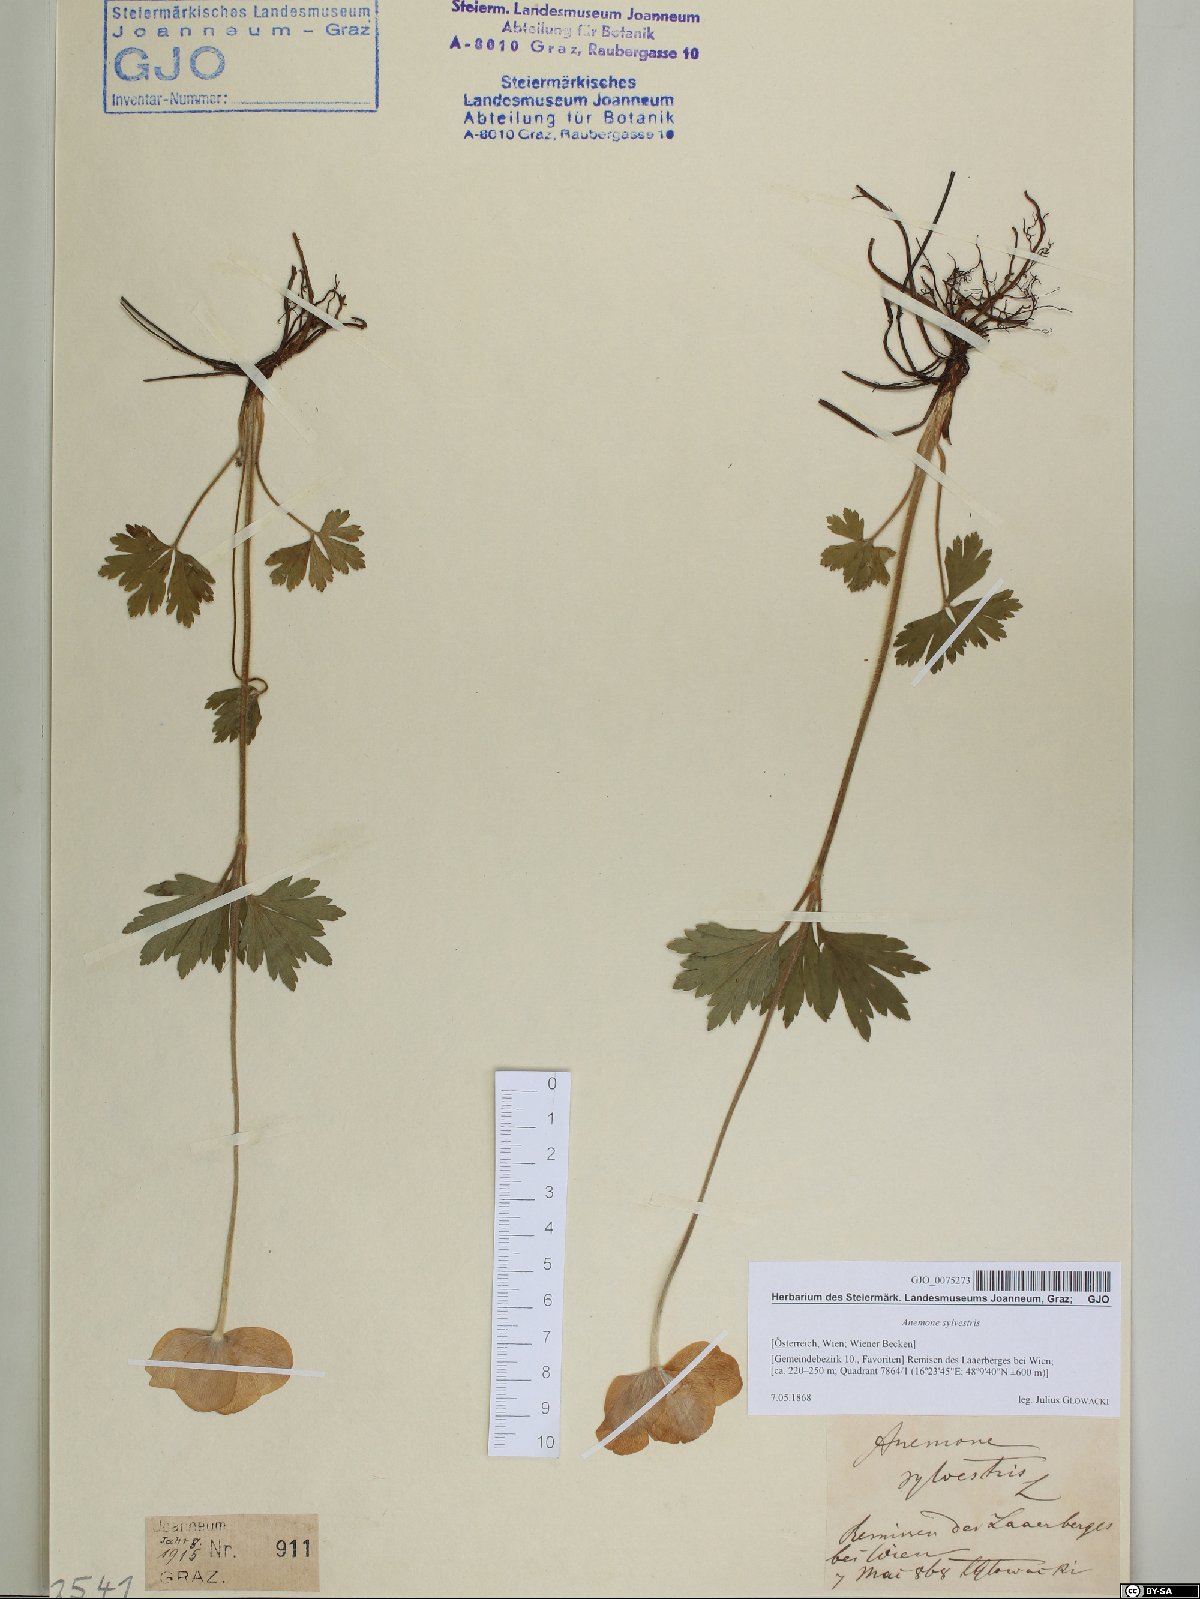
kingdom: Plantae
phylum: Tracheophyta
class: Magnoliopsida
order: Ranunculales
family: Ranunculaceae
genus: Anemone
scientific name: Anemone sylvestris
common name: Snowdrop anemone
